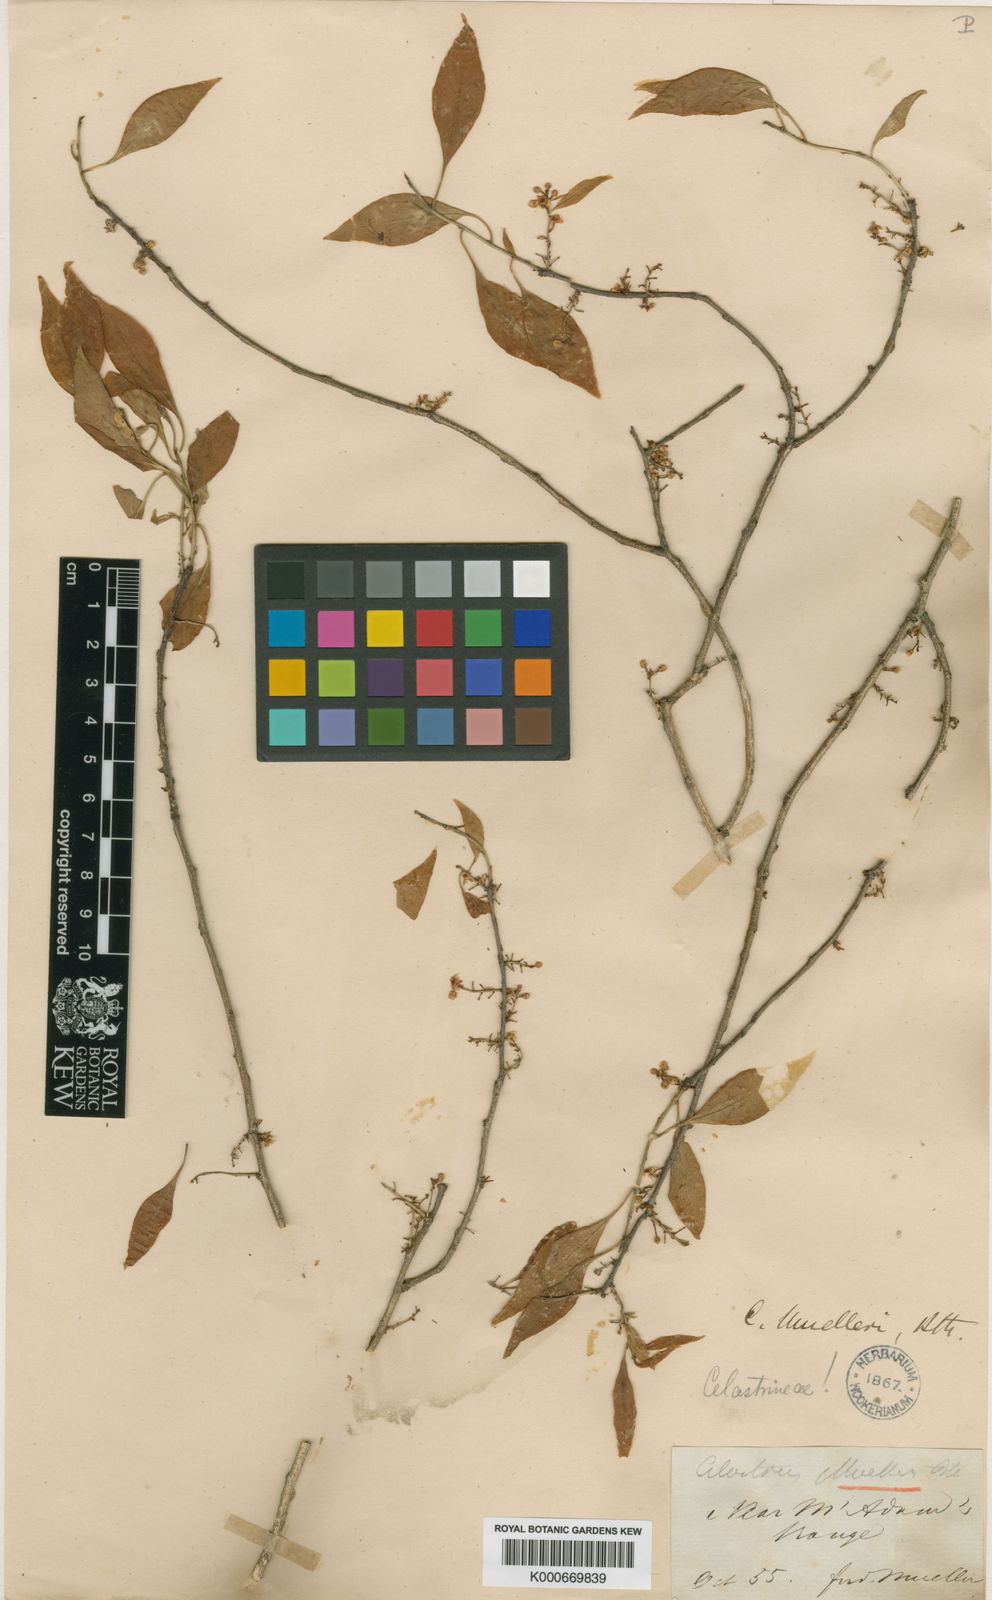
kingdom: Plantae
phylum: Tracheophyta
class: Magnoliopsida
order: Celastrales
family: Celastraceae
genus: Denhamia
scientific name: Denhamia muelleri
